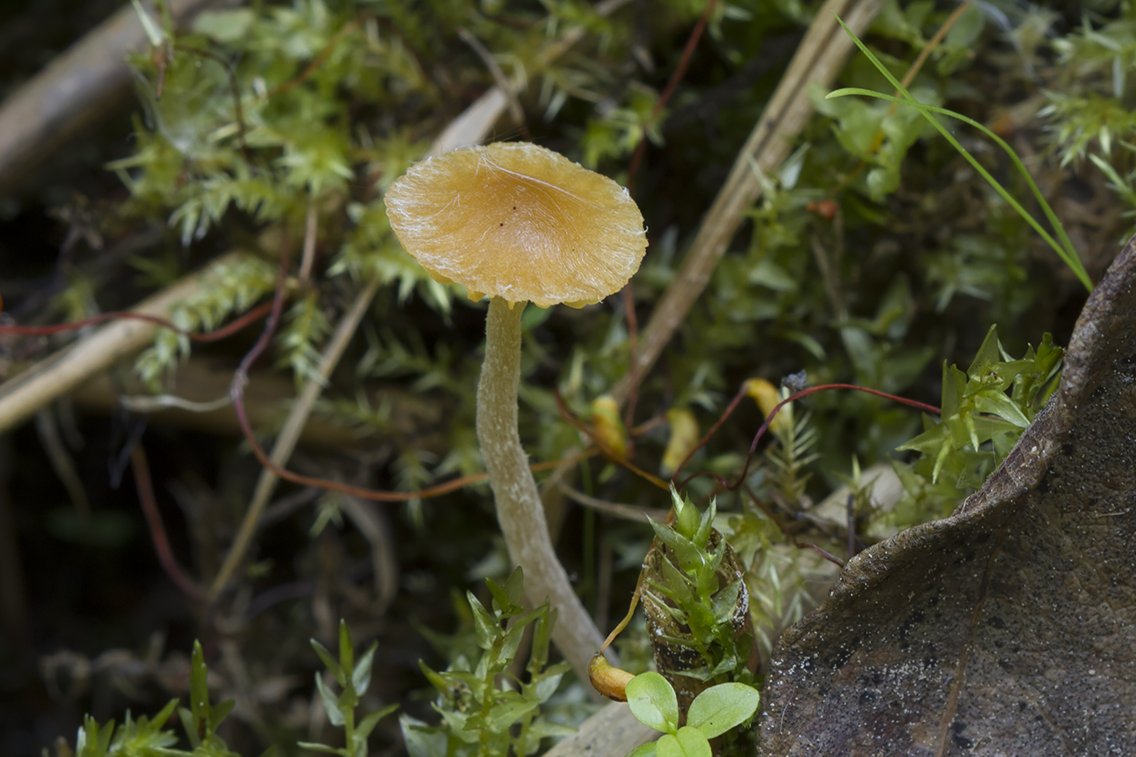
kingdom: Fungi
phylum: Basidiomycota
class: Agaricomycetes
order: Agaricales
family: Hymenogastraceae
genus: Galerina
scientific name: Galerina clavata
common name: kær-hjelmhat
